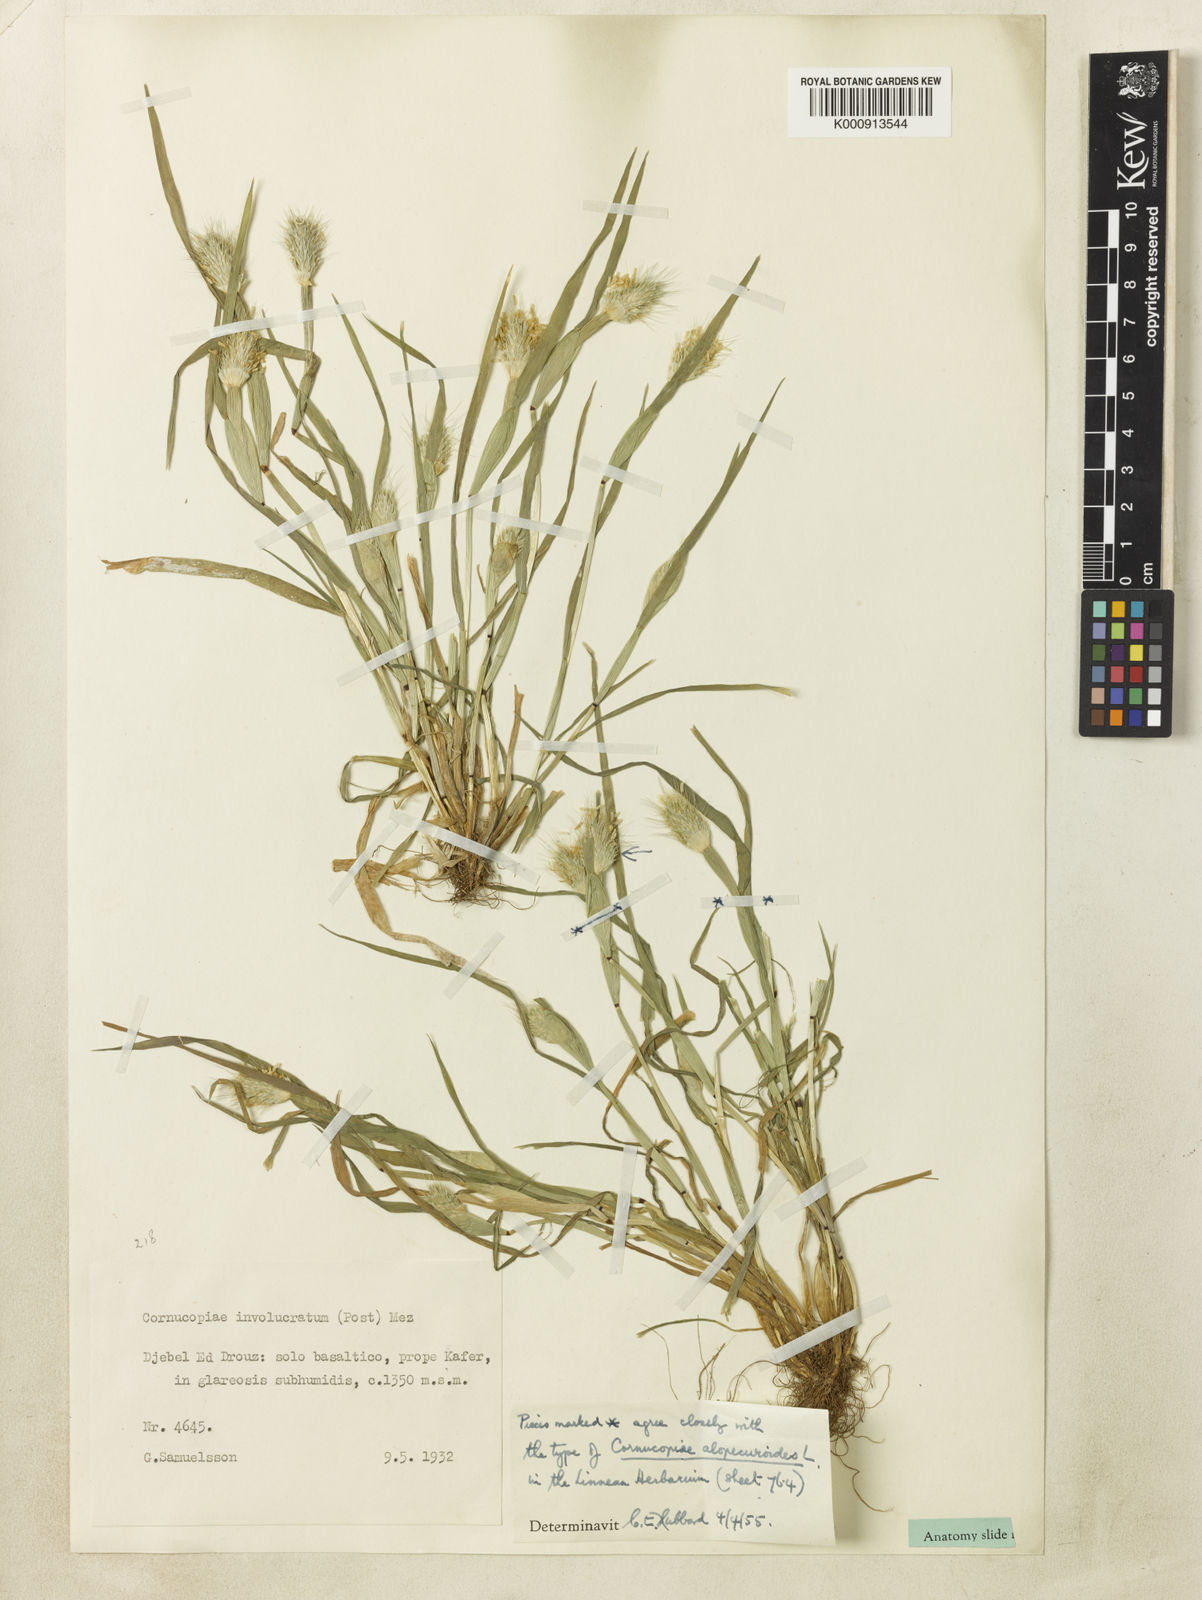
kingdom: Plantae
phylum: Tracheophyta
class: Liliopsida
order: Poales
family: Poaceae
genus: Cornucopiae
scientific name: Cornucopiae alopecuroides
